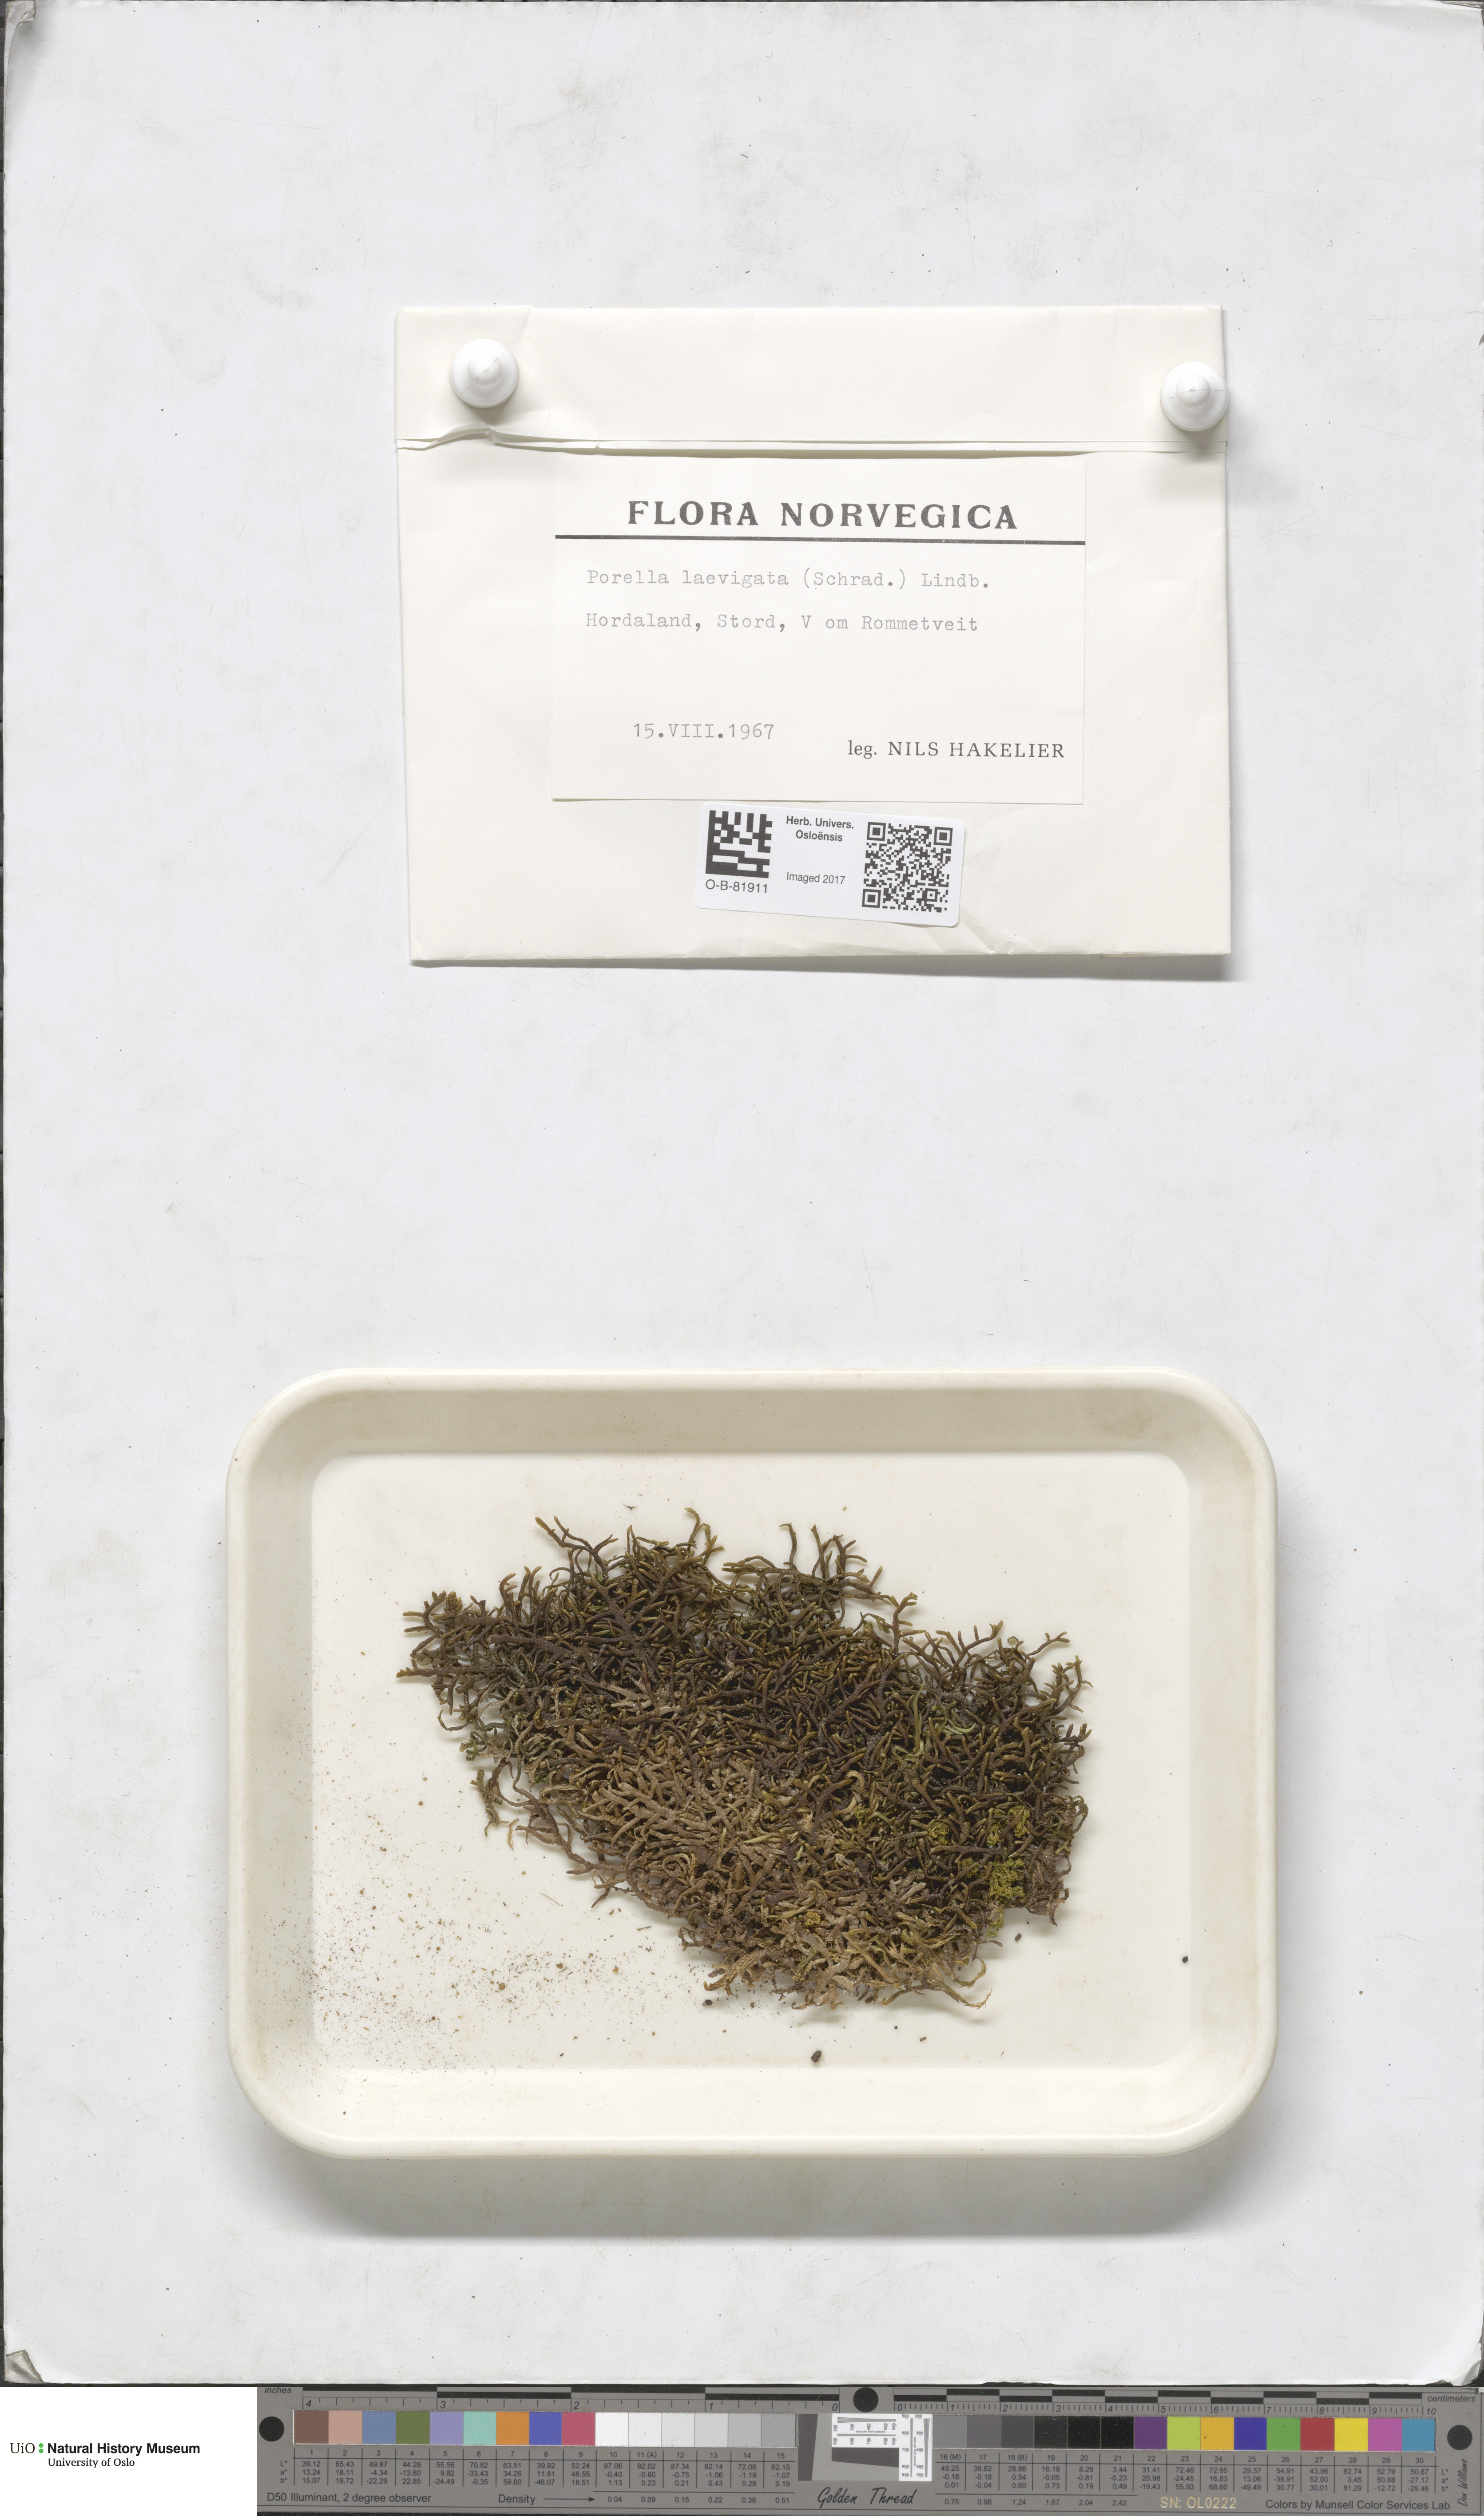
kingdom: Plantae
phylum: Marchantiophyta
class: Jungermanniopsida
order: Porellales
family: Porellaceae
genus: Porella
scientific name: Porella arboris-vitae
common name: Bitter scalewort
